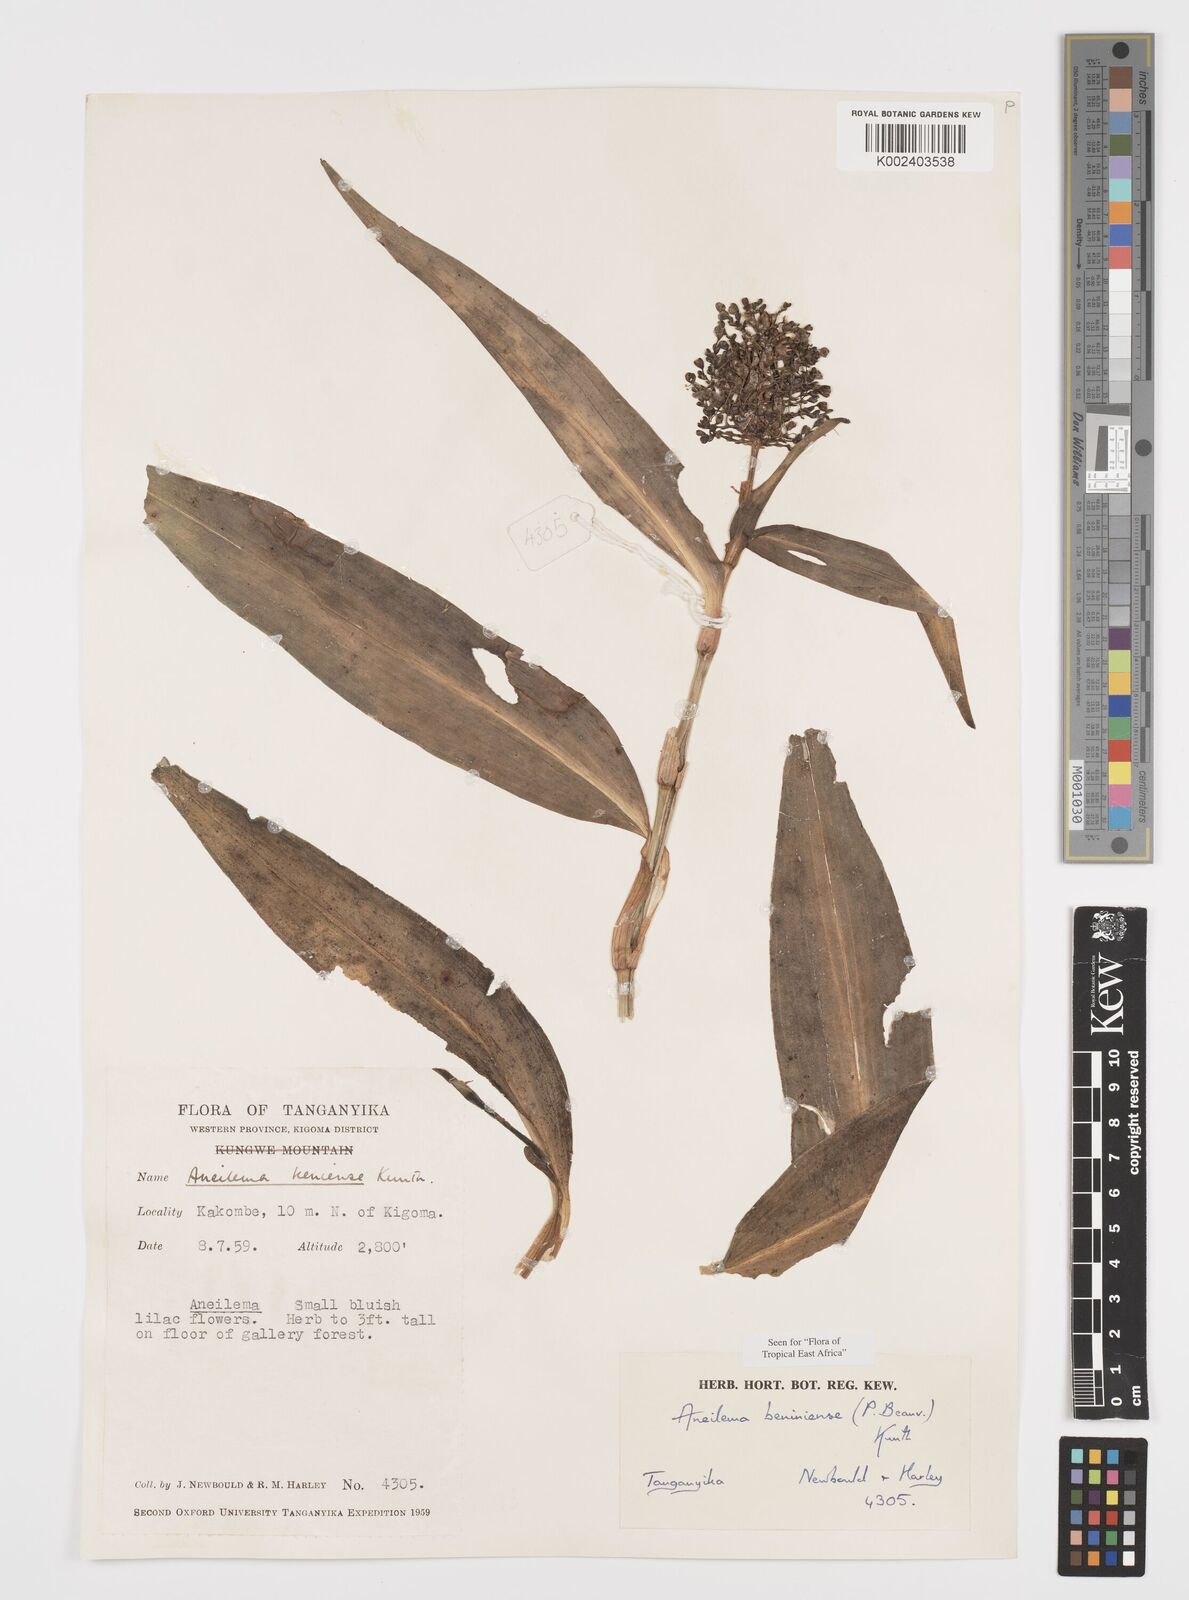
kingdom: Plantae
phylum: Tracheophyta
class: Liliopsida
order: Commelinales
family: Commelinaceae
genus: Aneilema
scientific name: Aneilema beniniense
